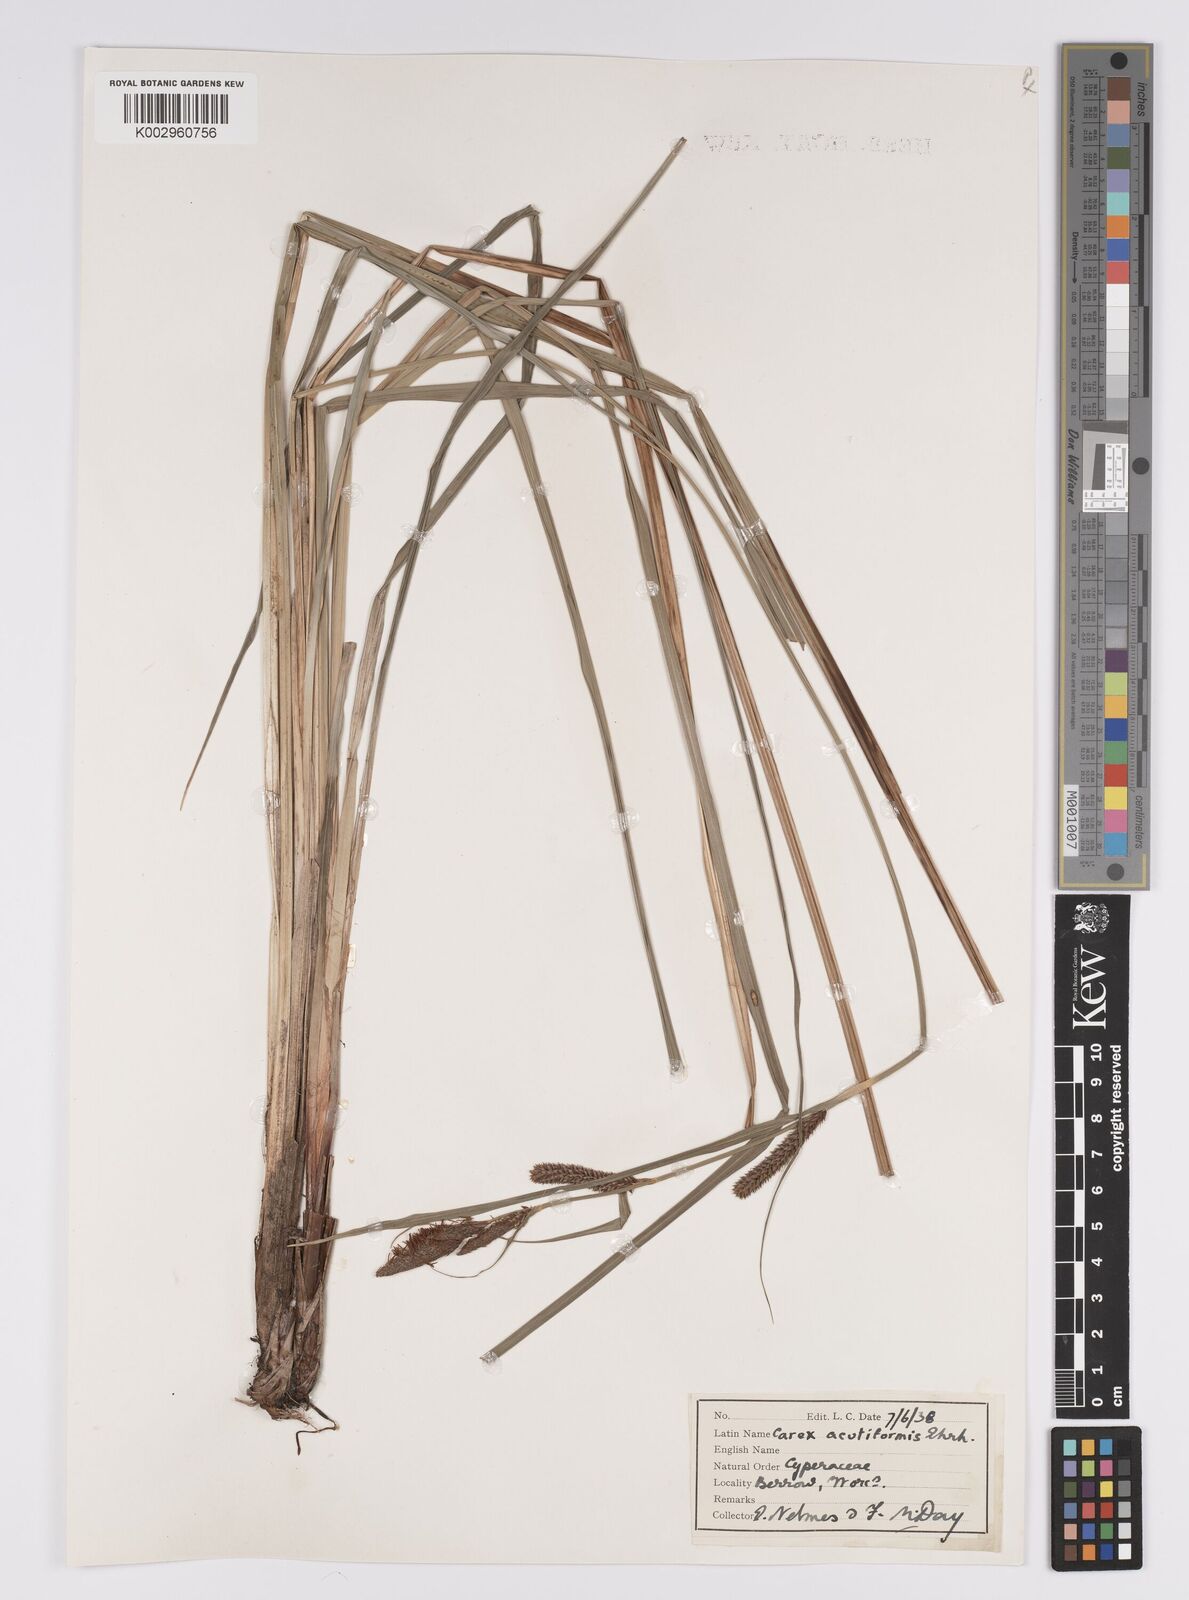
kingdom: Plantae
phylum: Tracheophyta
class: Liliopsida
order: Poales
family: Cyperaceae
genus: Carex
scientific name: Carex acutiformis
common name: Lesser pond-sedge
